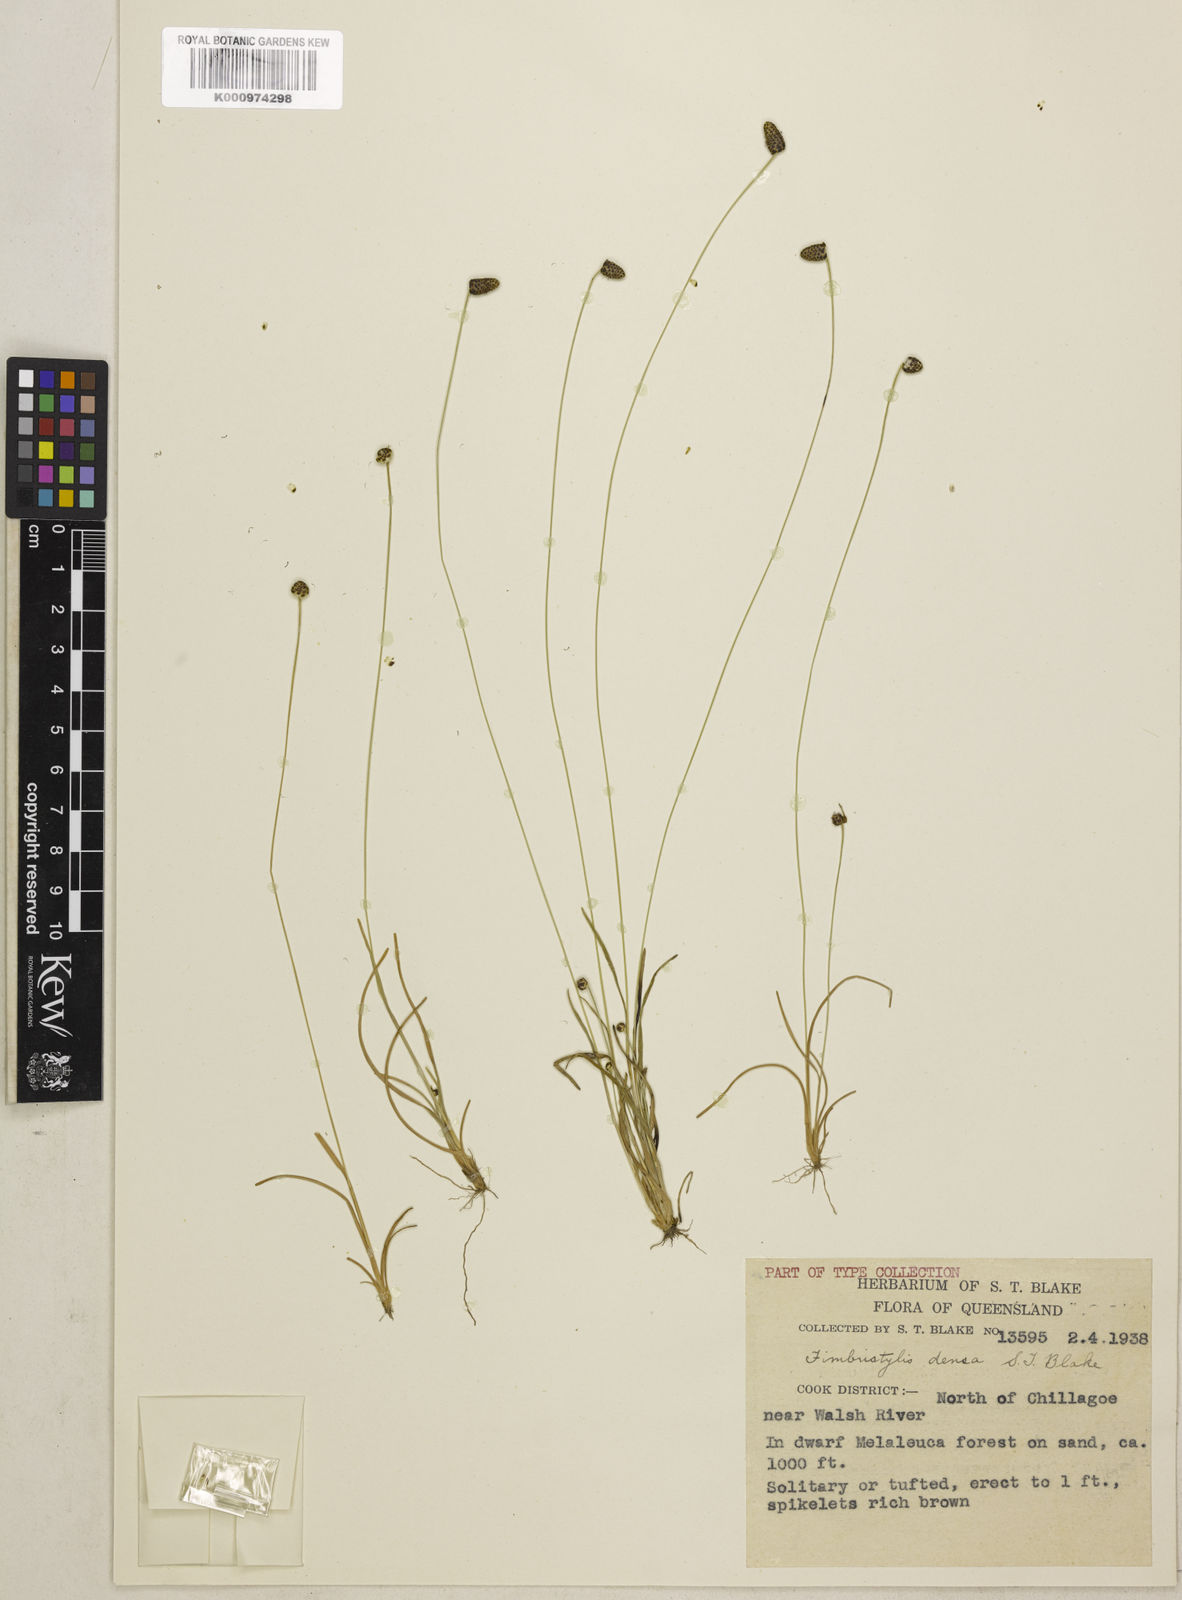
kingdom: Plantae
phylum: Tracheophyta
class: Liliopsida
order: Poales
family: Cyperaceae
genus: Fimbristylis
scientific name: Fimbristylis densa
